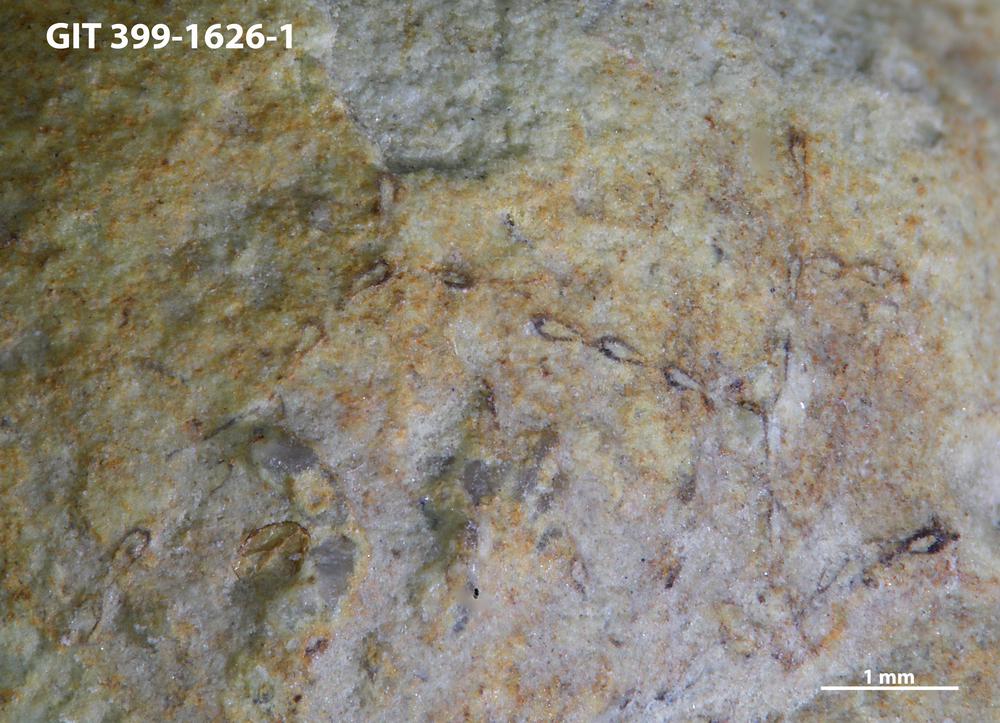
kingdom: Animalia
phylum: Bryozoa
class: Stenolaemata
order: Cyclostomatida
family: Corynotrypidae
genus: Corynotrypa
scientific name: Corynotrypa
